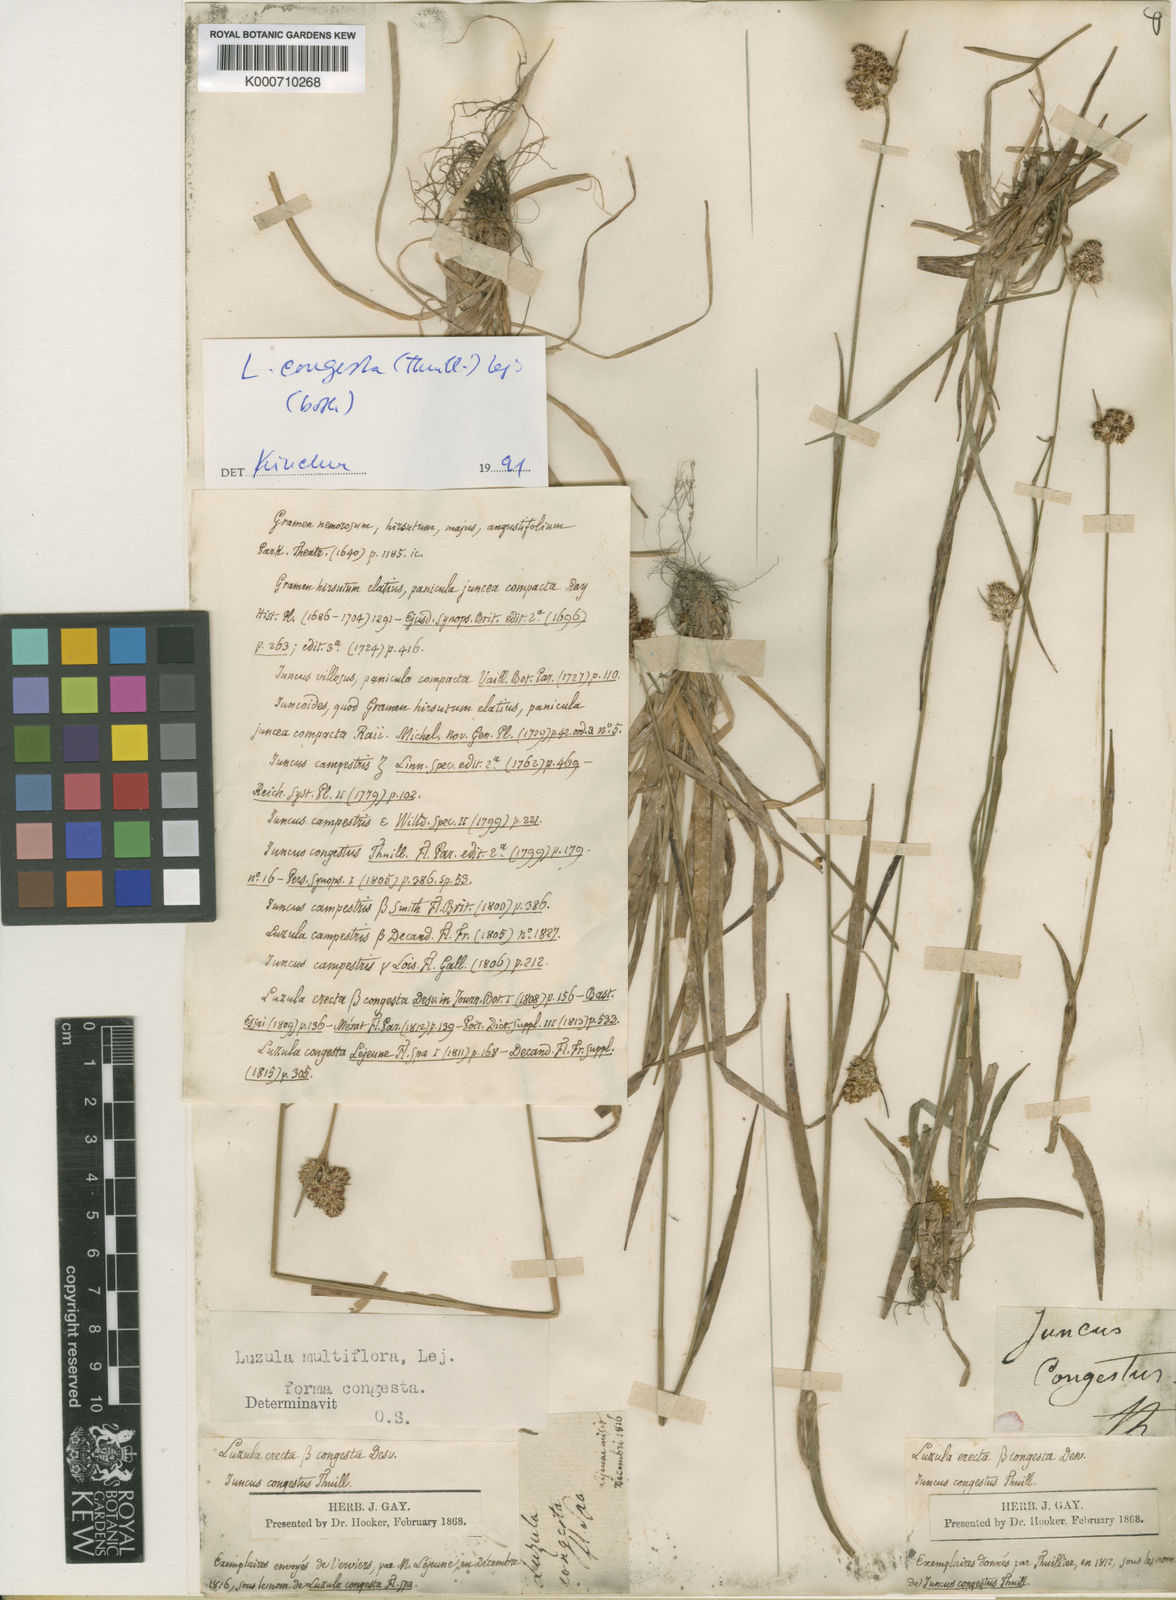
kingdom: Plantae
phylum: Tracheophyta
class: Liliopsida
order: Poales
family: Juncaceae
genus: Luzula
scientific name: Luzula congesta
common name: Heath woodrush
